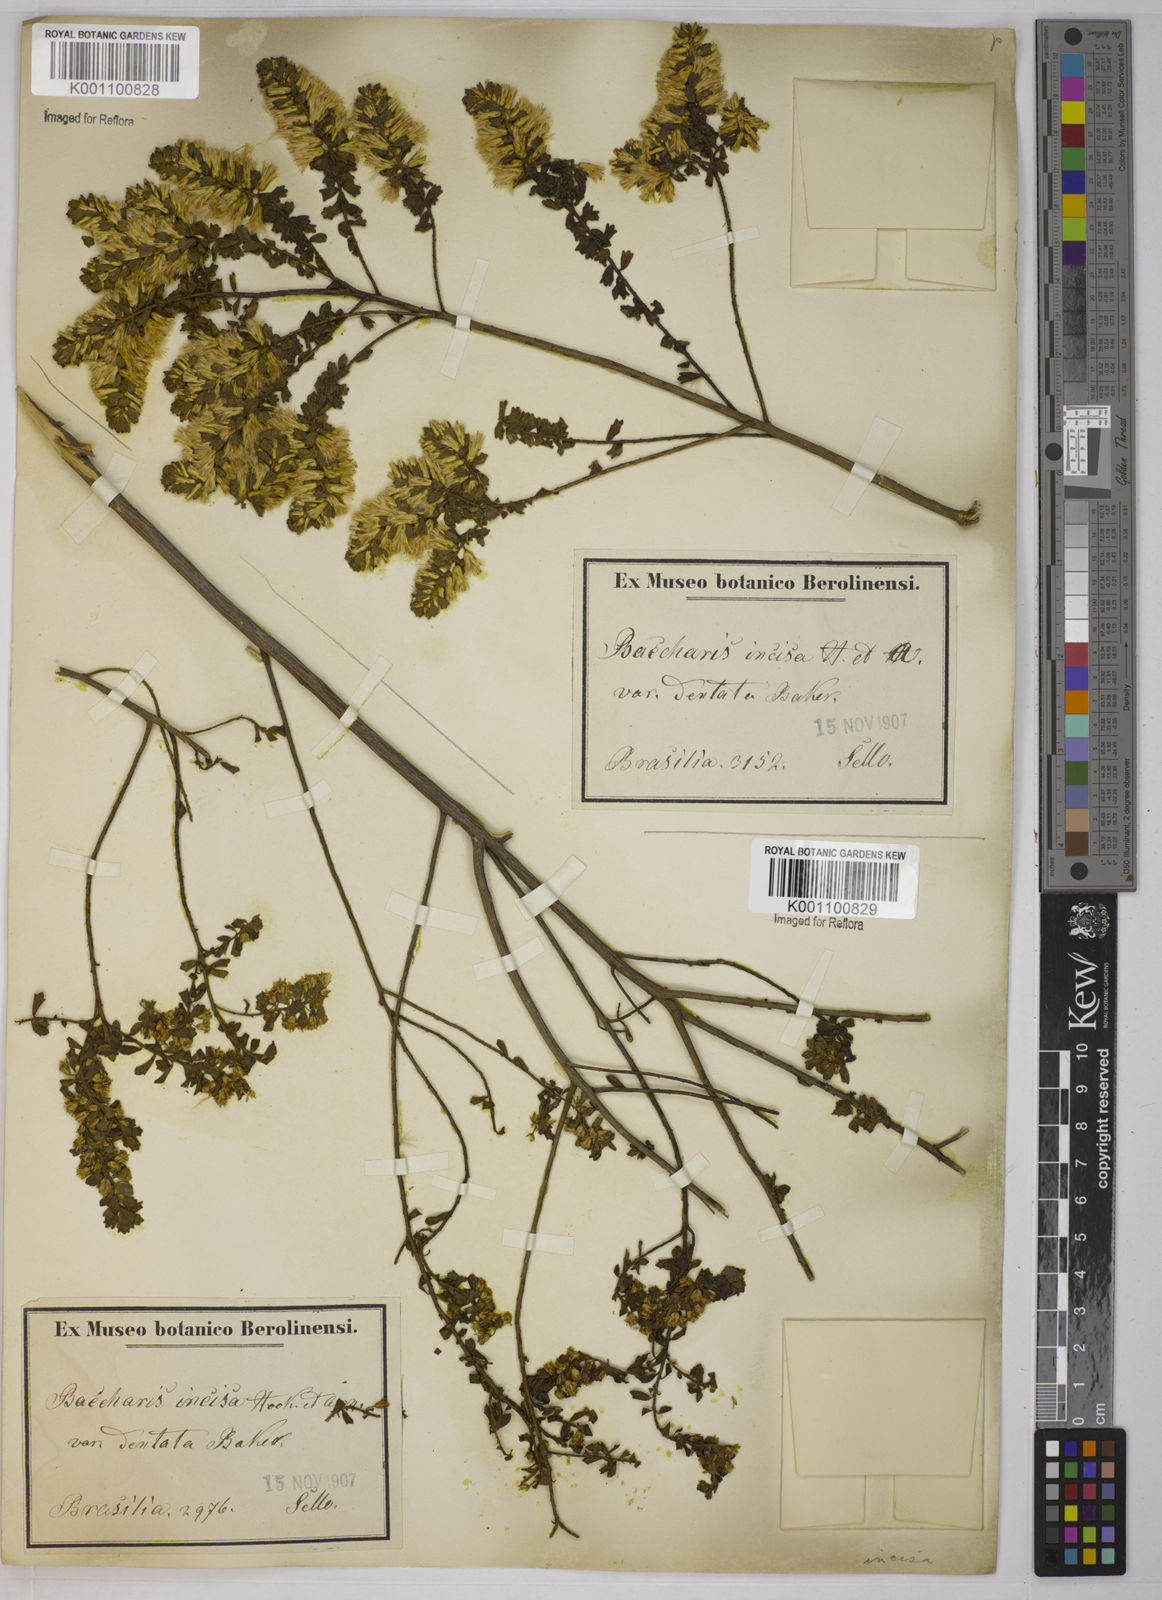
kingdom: Plantae
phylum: Tracheophyta
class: Magnoliopsida
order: Asterales
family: Asteraceae
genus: Baccharis
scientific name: Baccharis gaucha
